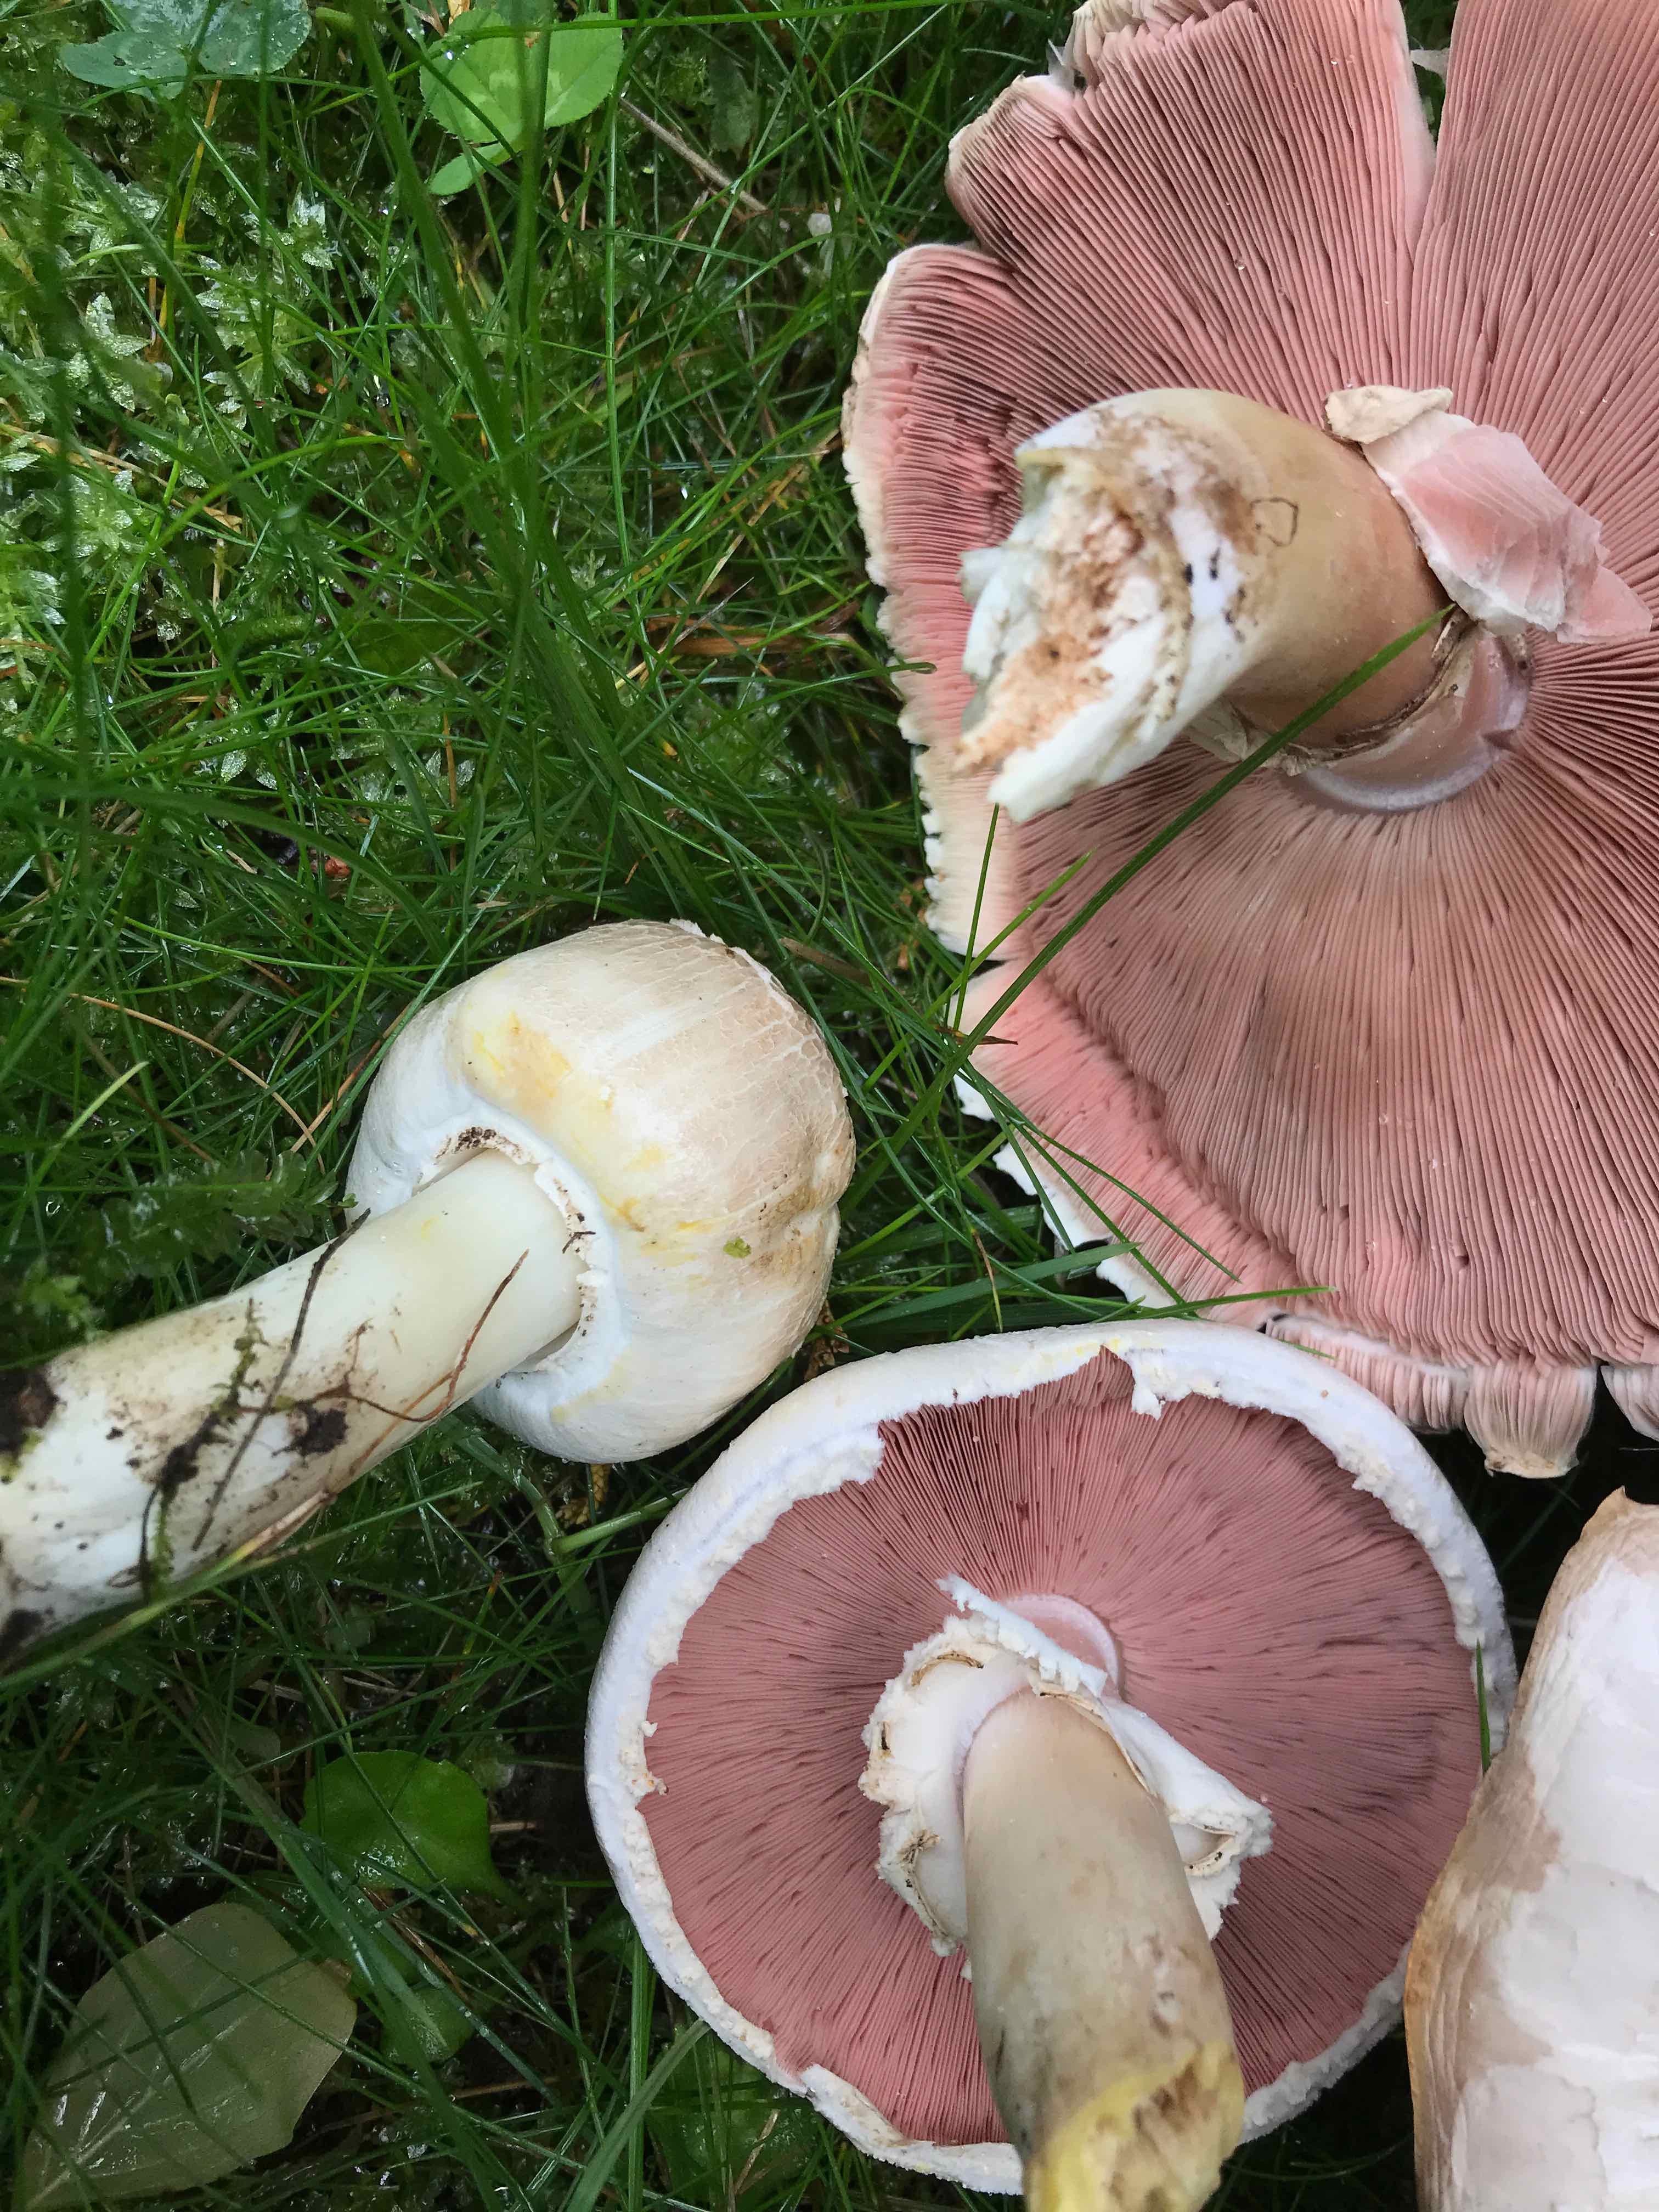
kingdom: Fungi
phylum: Basidiomycota
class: Agaricomycetes
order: Agaricales
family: Agaricaceae
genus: Agaricus
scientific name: Agaricus xanthodermus
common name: karbol-champignon
